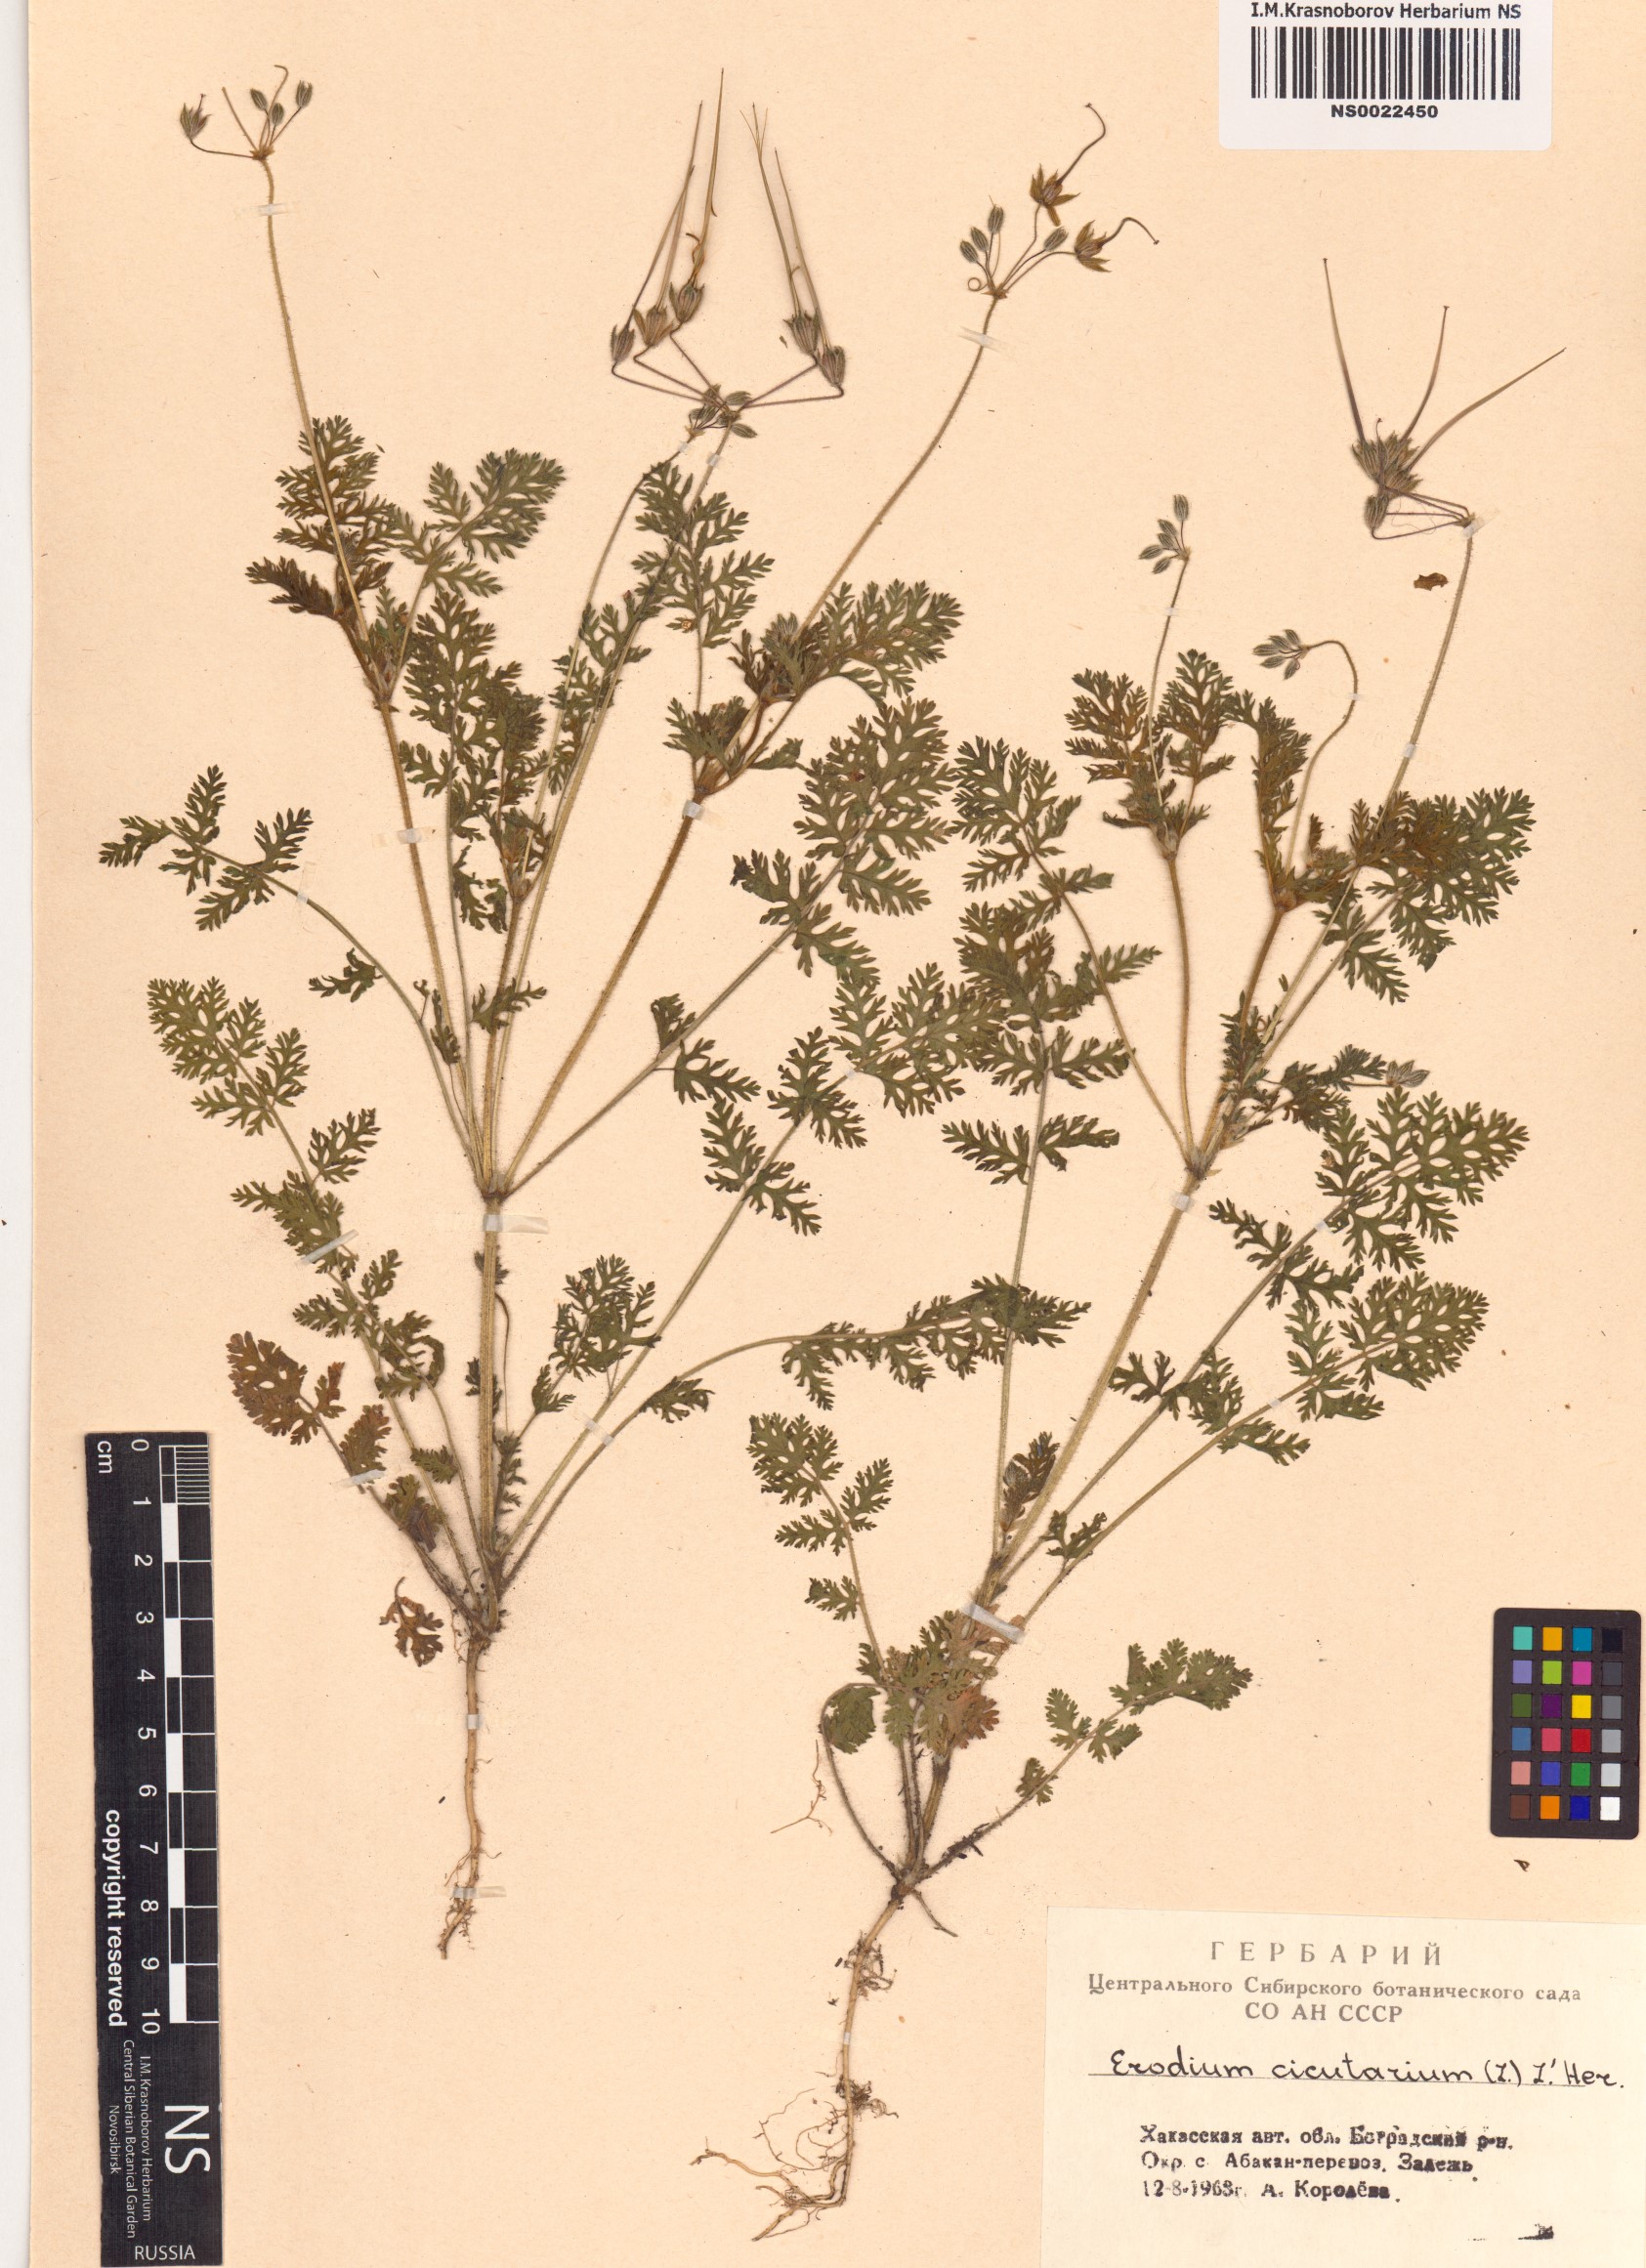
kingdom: Plantae
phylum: Tracheophyta
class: Magnoliopsida
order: Geraniales
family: Geraniaceae
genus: Erodium
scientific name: Erodium cicutarium
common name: Common stork's-bill
